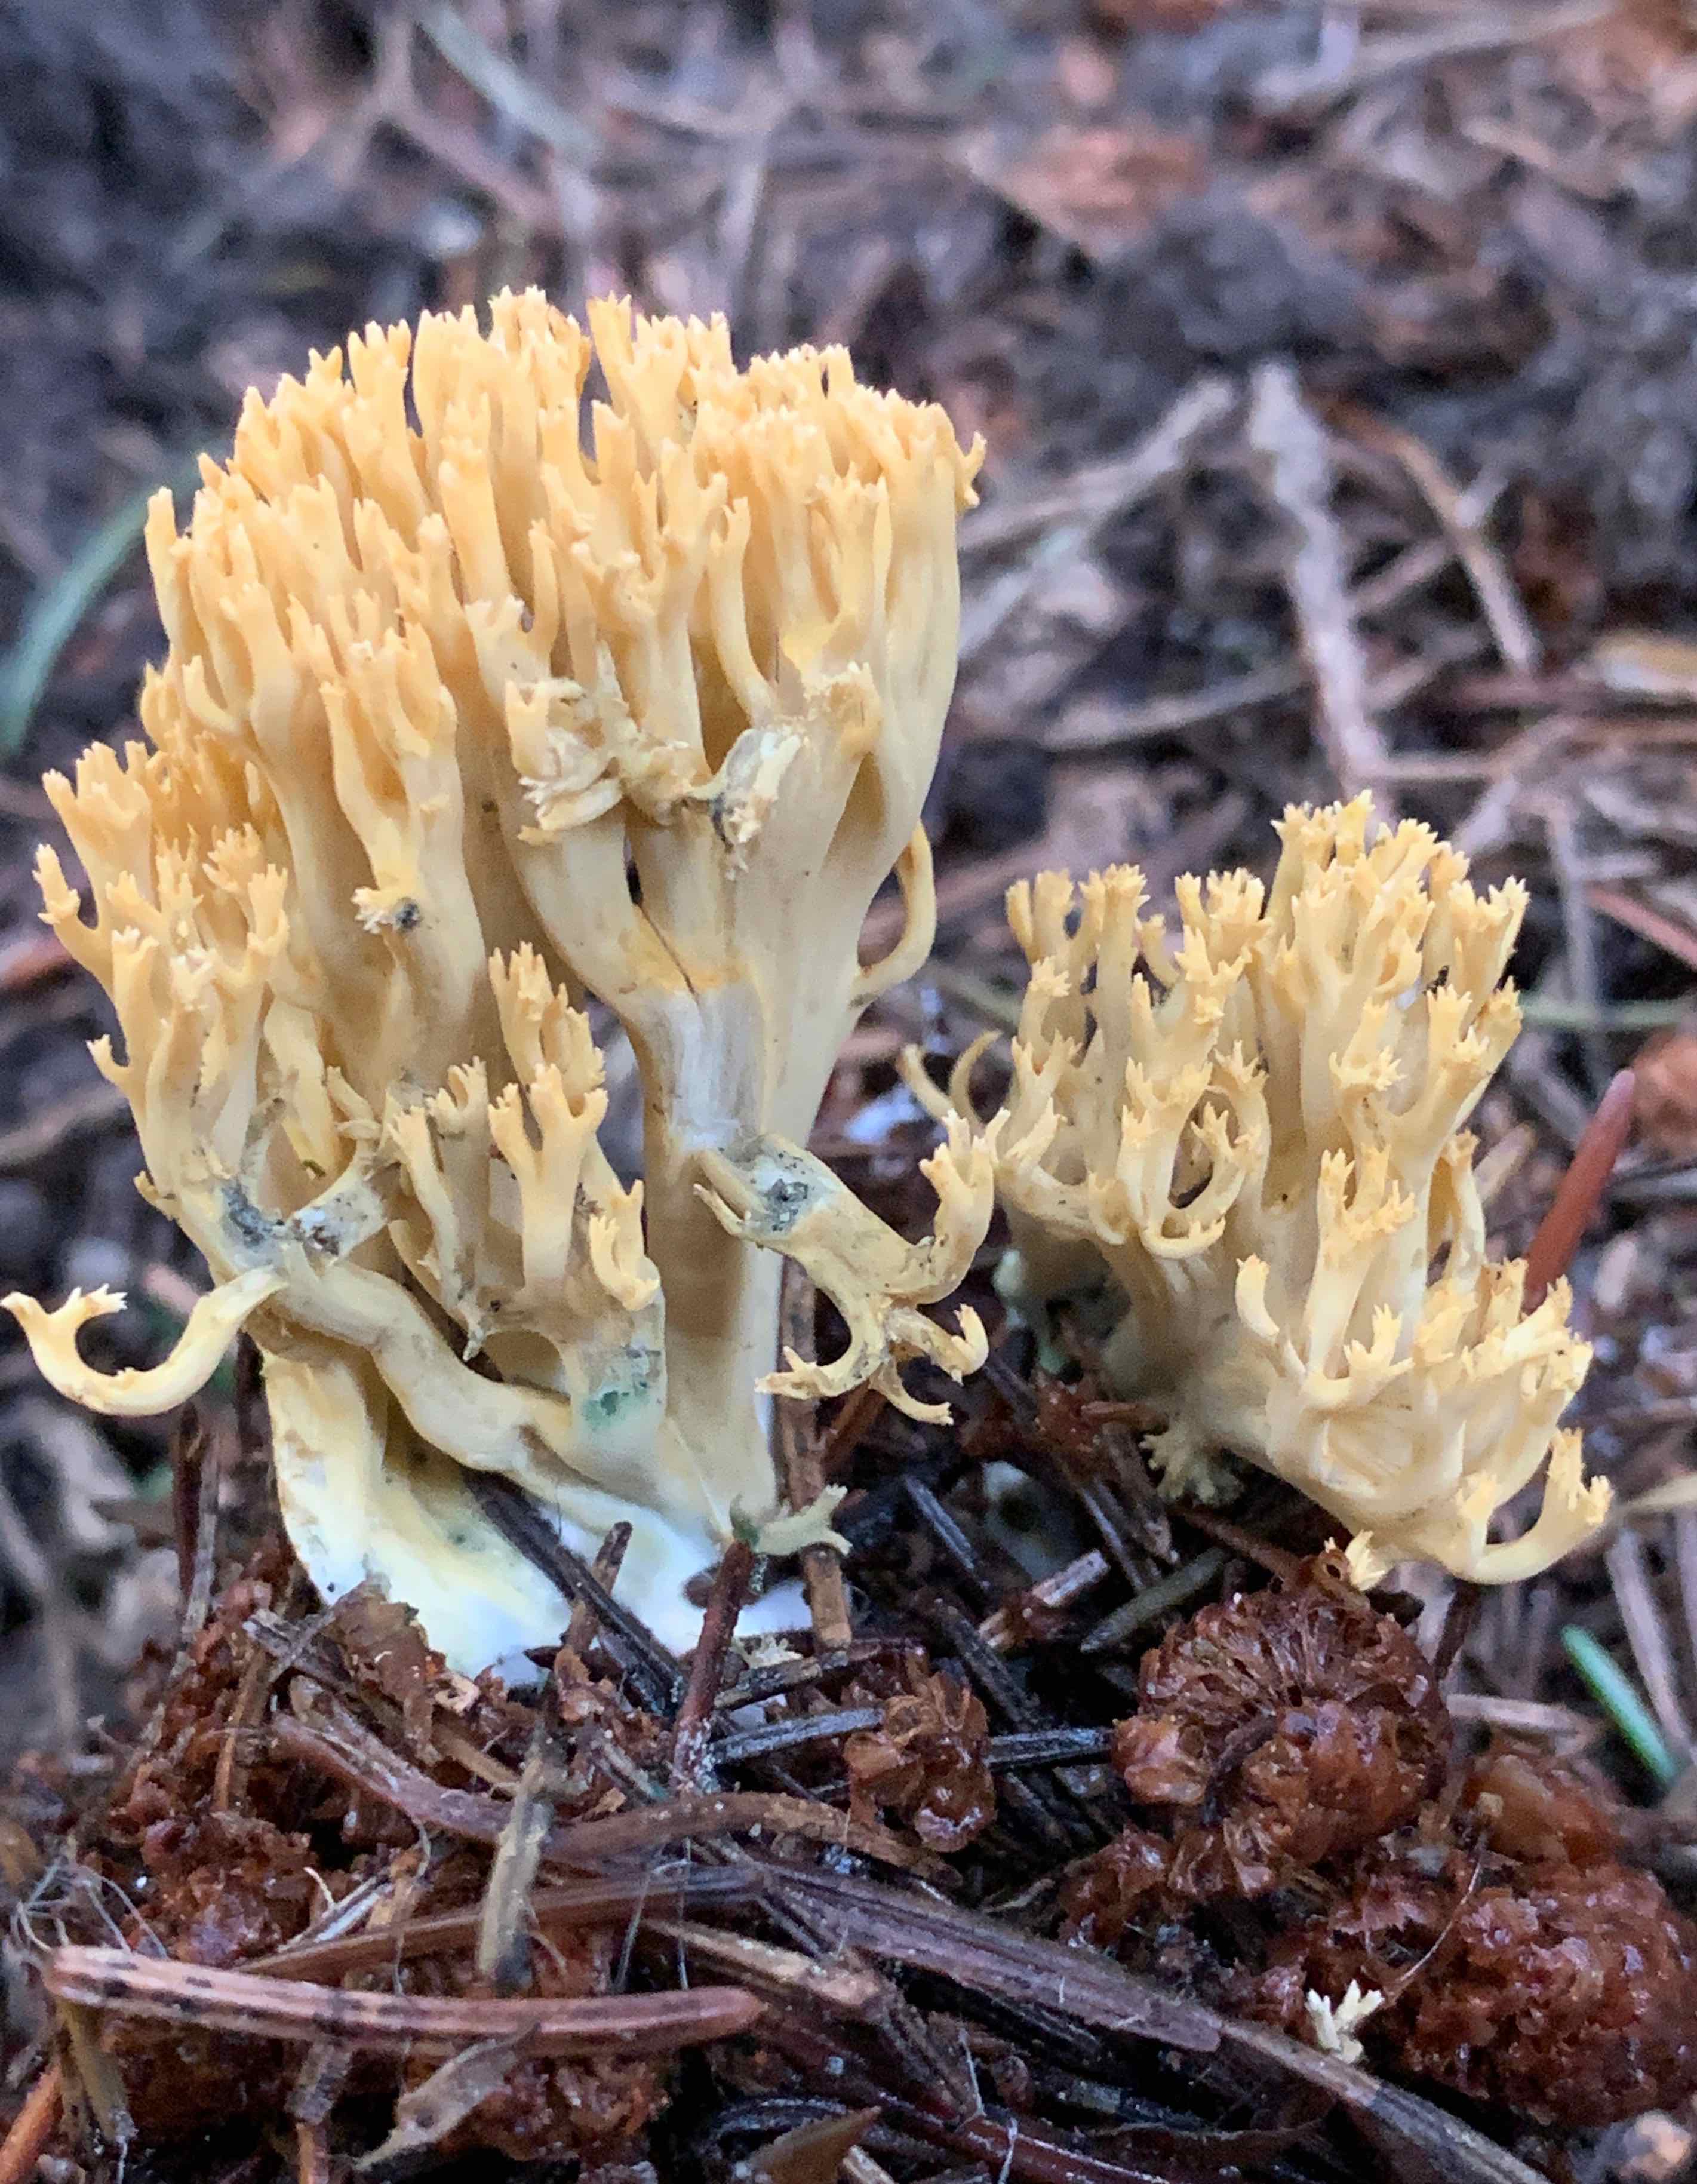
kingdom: Fungi
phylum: Basidiomycota
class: Agaricomycetes
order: Gomphales
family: Gomphaceae
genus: Phaeoclavulina
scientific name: Phaeoclavulina abietina
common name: gulgrøn koralsvamp
